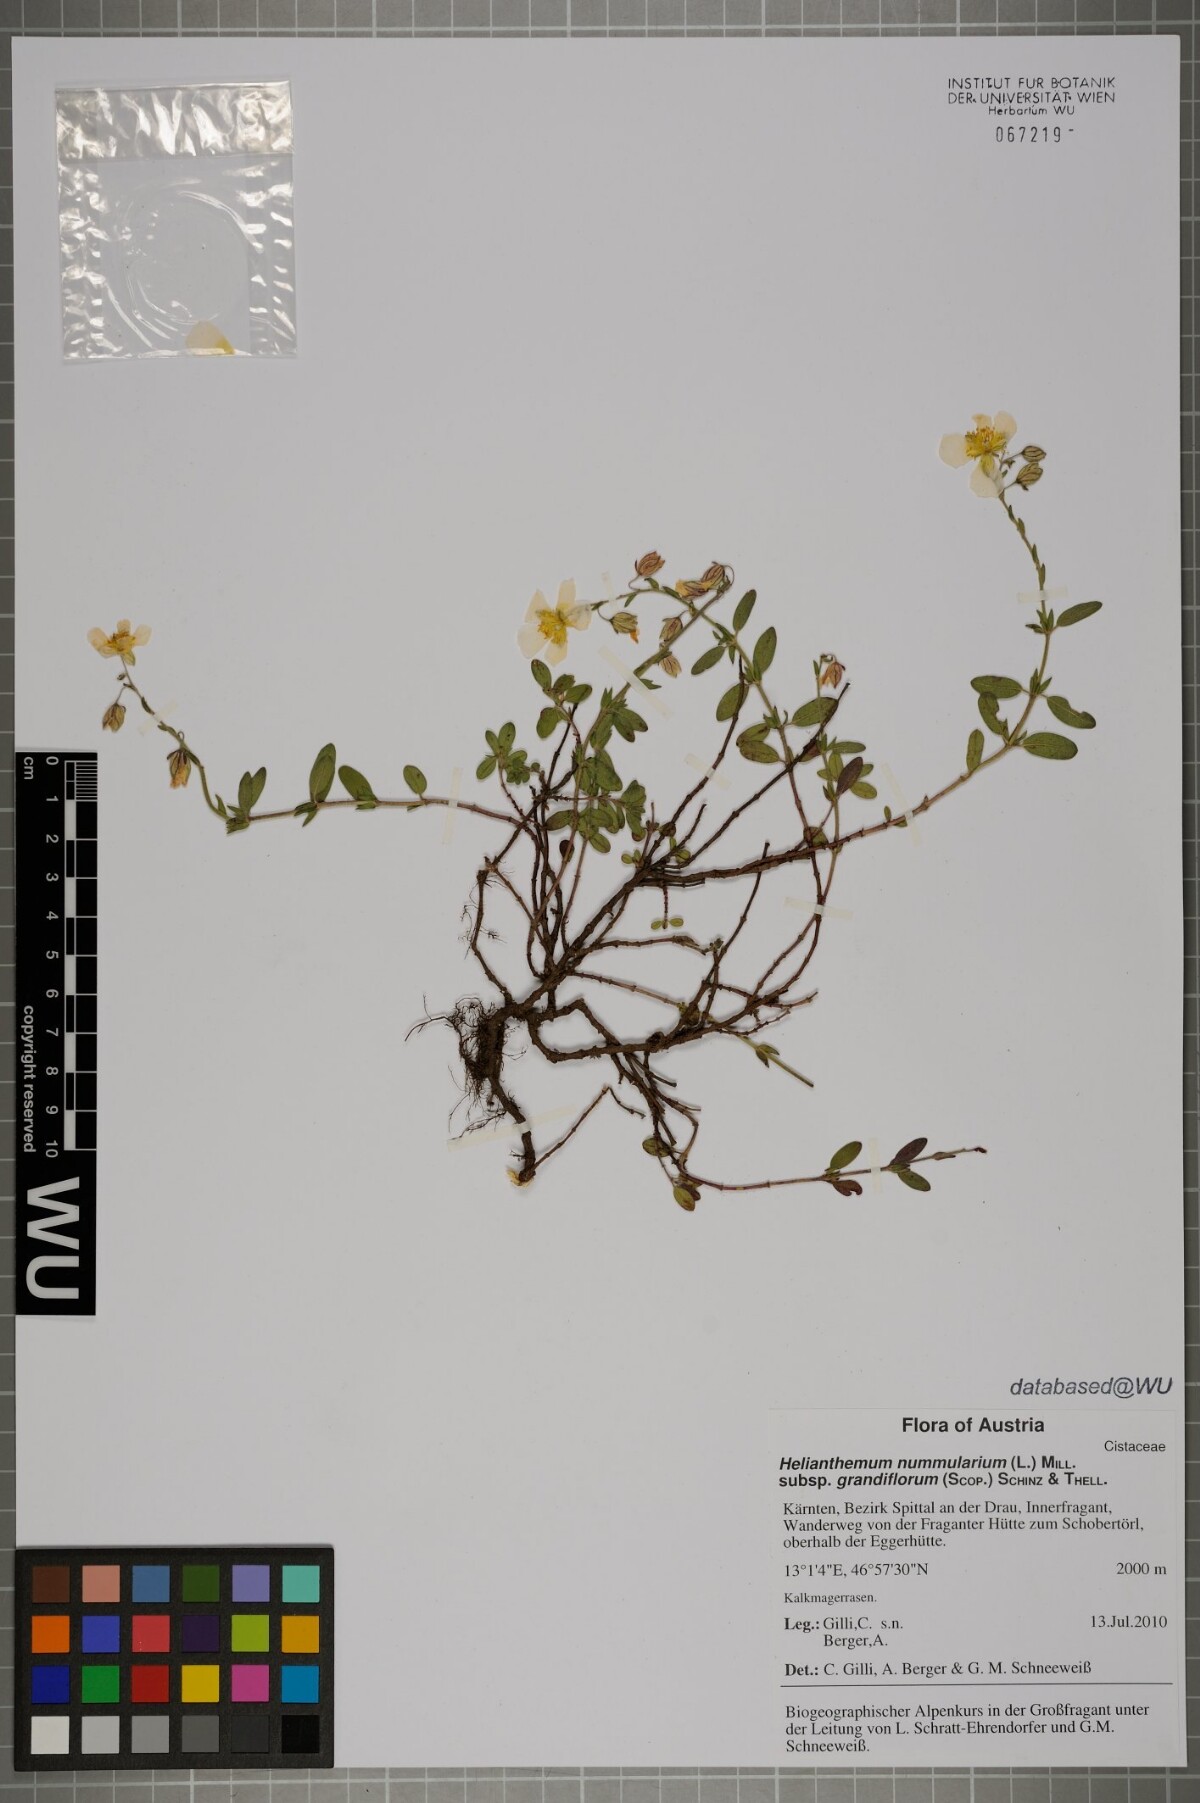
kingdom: Plantae
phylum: Tracheophyta
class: Magnoliopsida
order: Malvales
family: Cistaceae
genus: Helianthemum
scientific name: Helianthemum nummularium
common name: Common rock-rose
